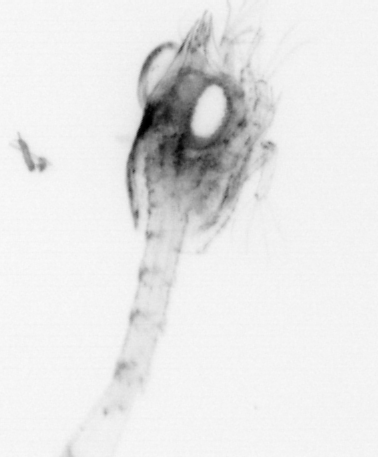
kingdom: Animalia
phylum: Arthropoda
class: Malacostraca
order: Decapoda
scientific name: Decapoda
